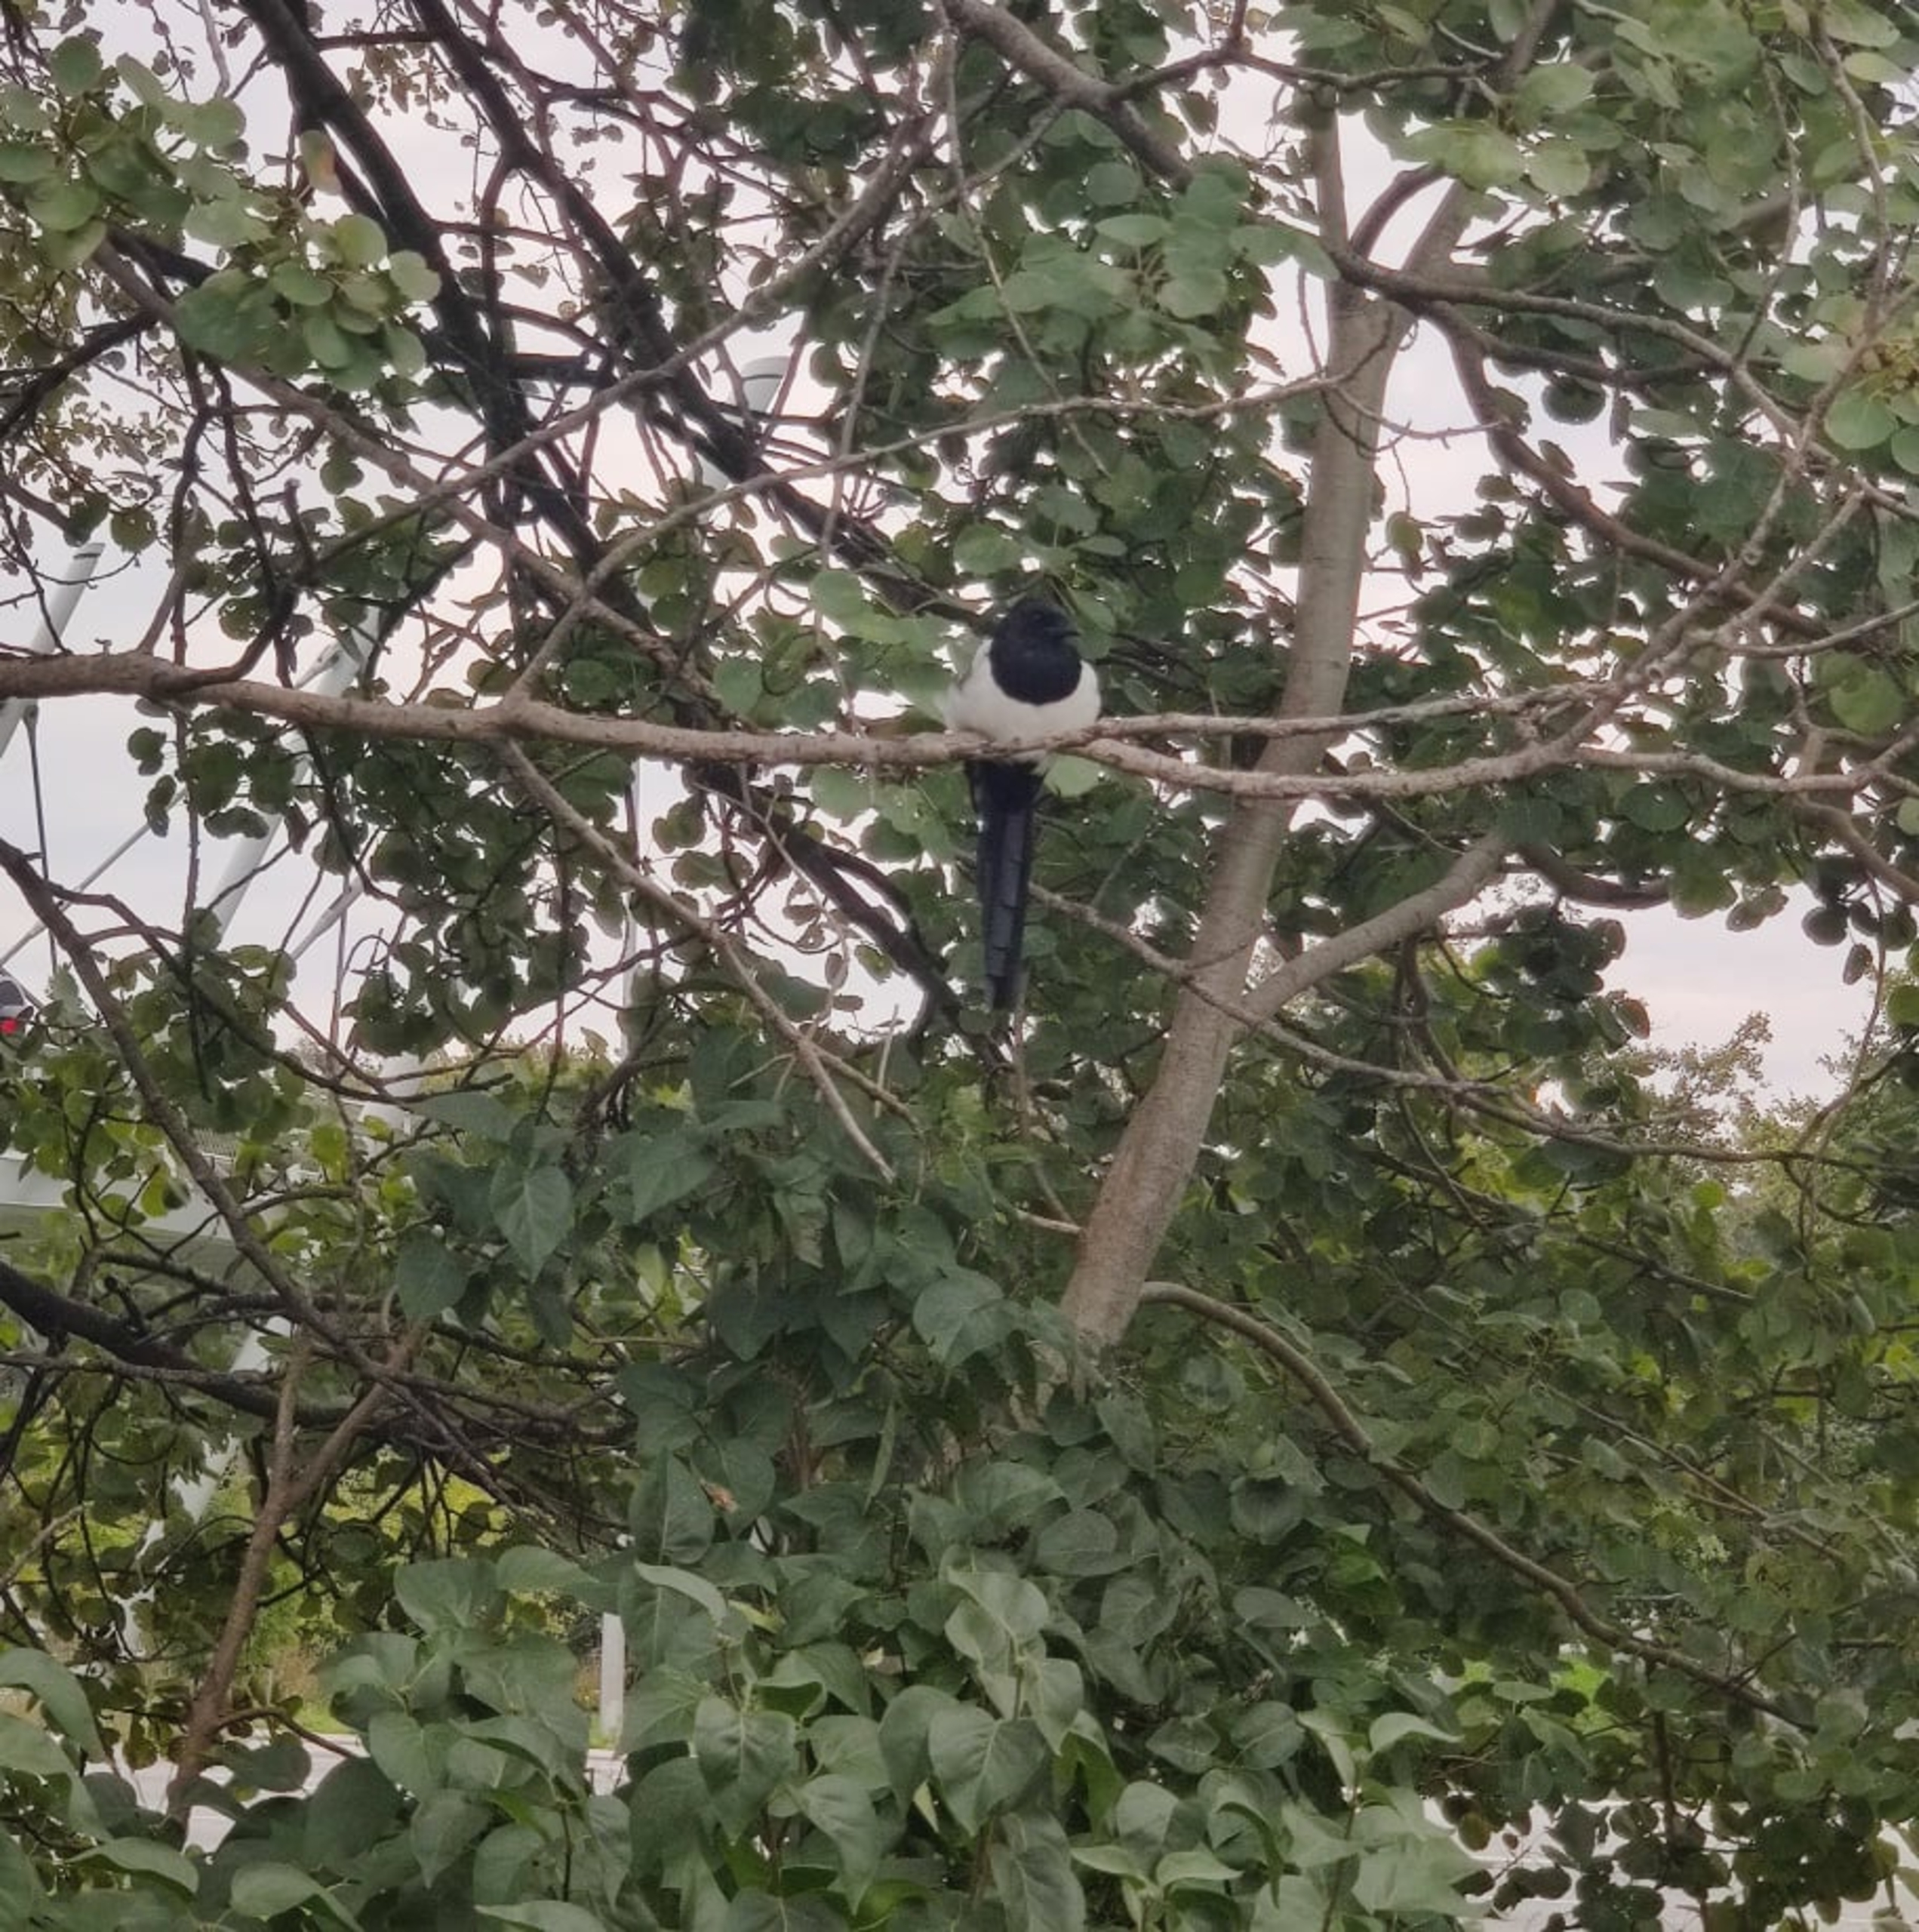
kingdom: Animalia
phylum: Chordata
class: Aves
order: Passeriformes
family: Corvidae
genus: Pica
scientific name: Pica pica
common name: Husskade
